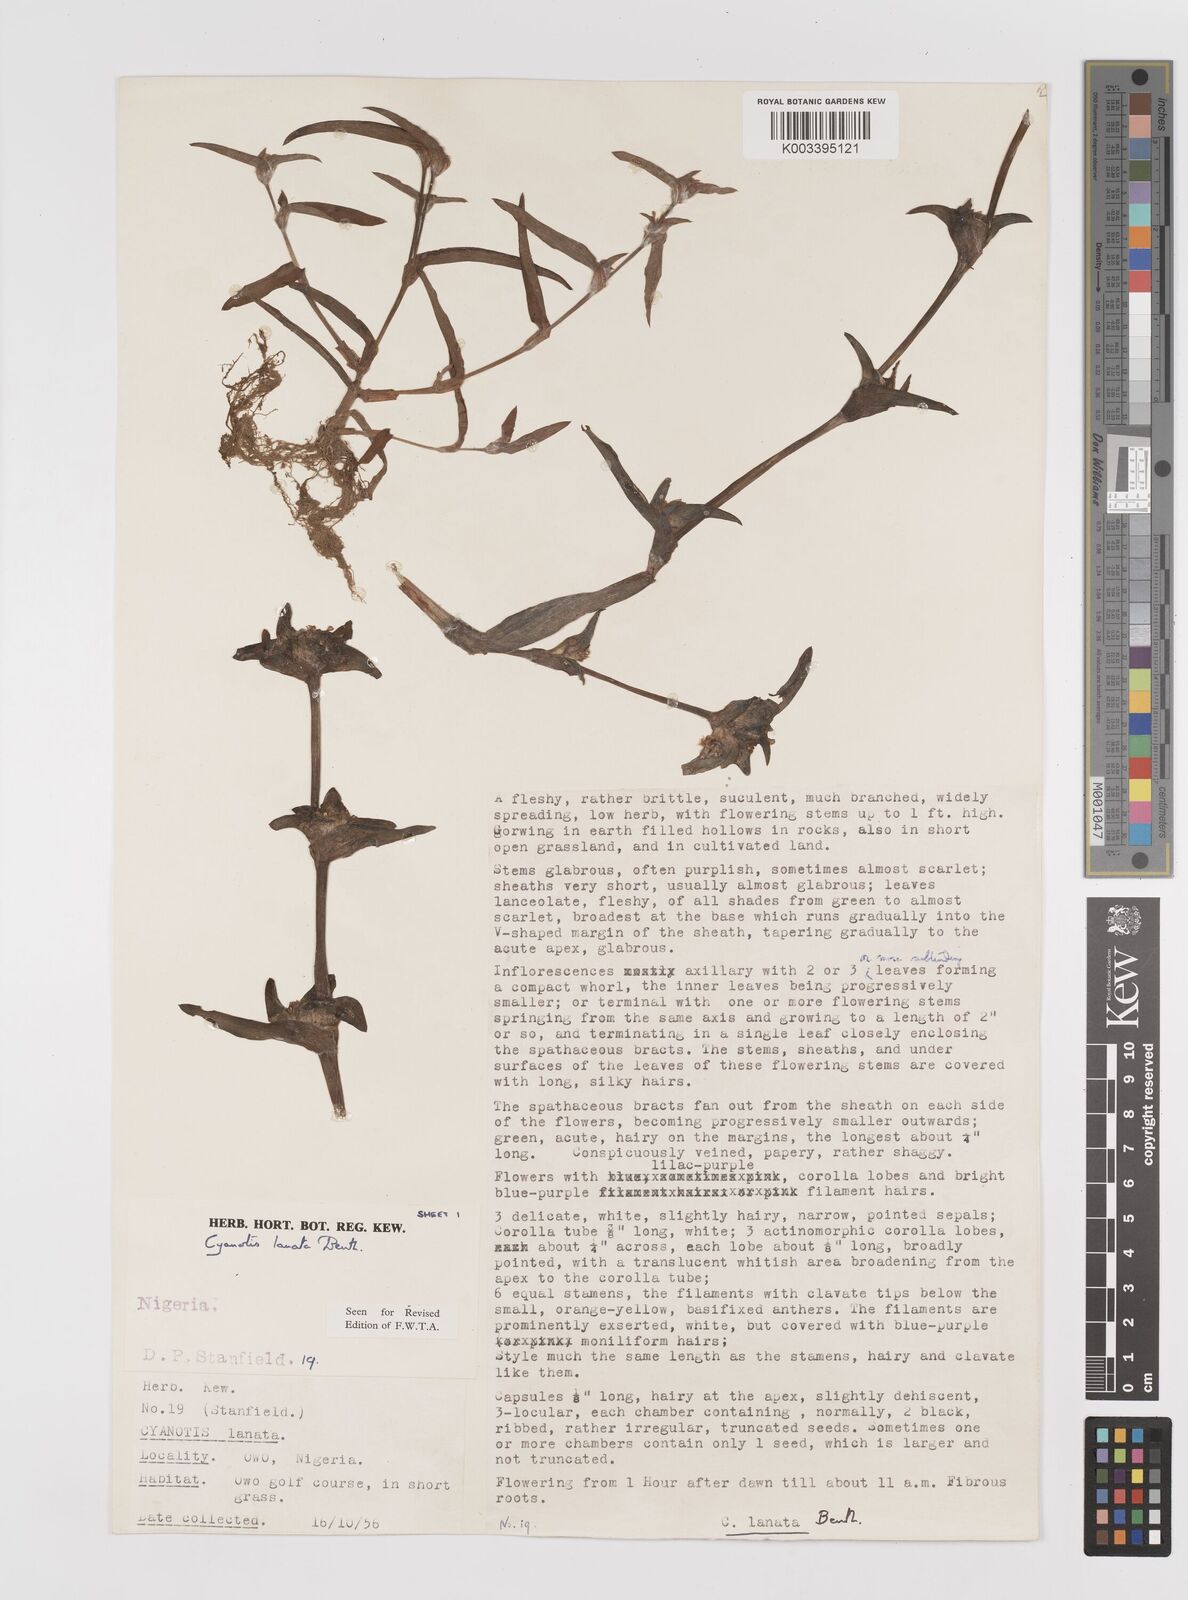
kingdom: Plantae
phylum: Tracheophyta
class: Liliopsida
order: Commelinales
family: Commelinaceae
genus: Cyanotis
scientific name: Cyanotis lanata
